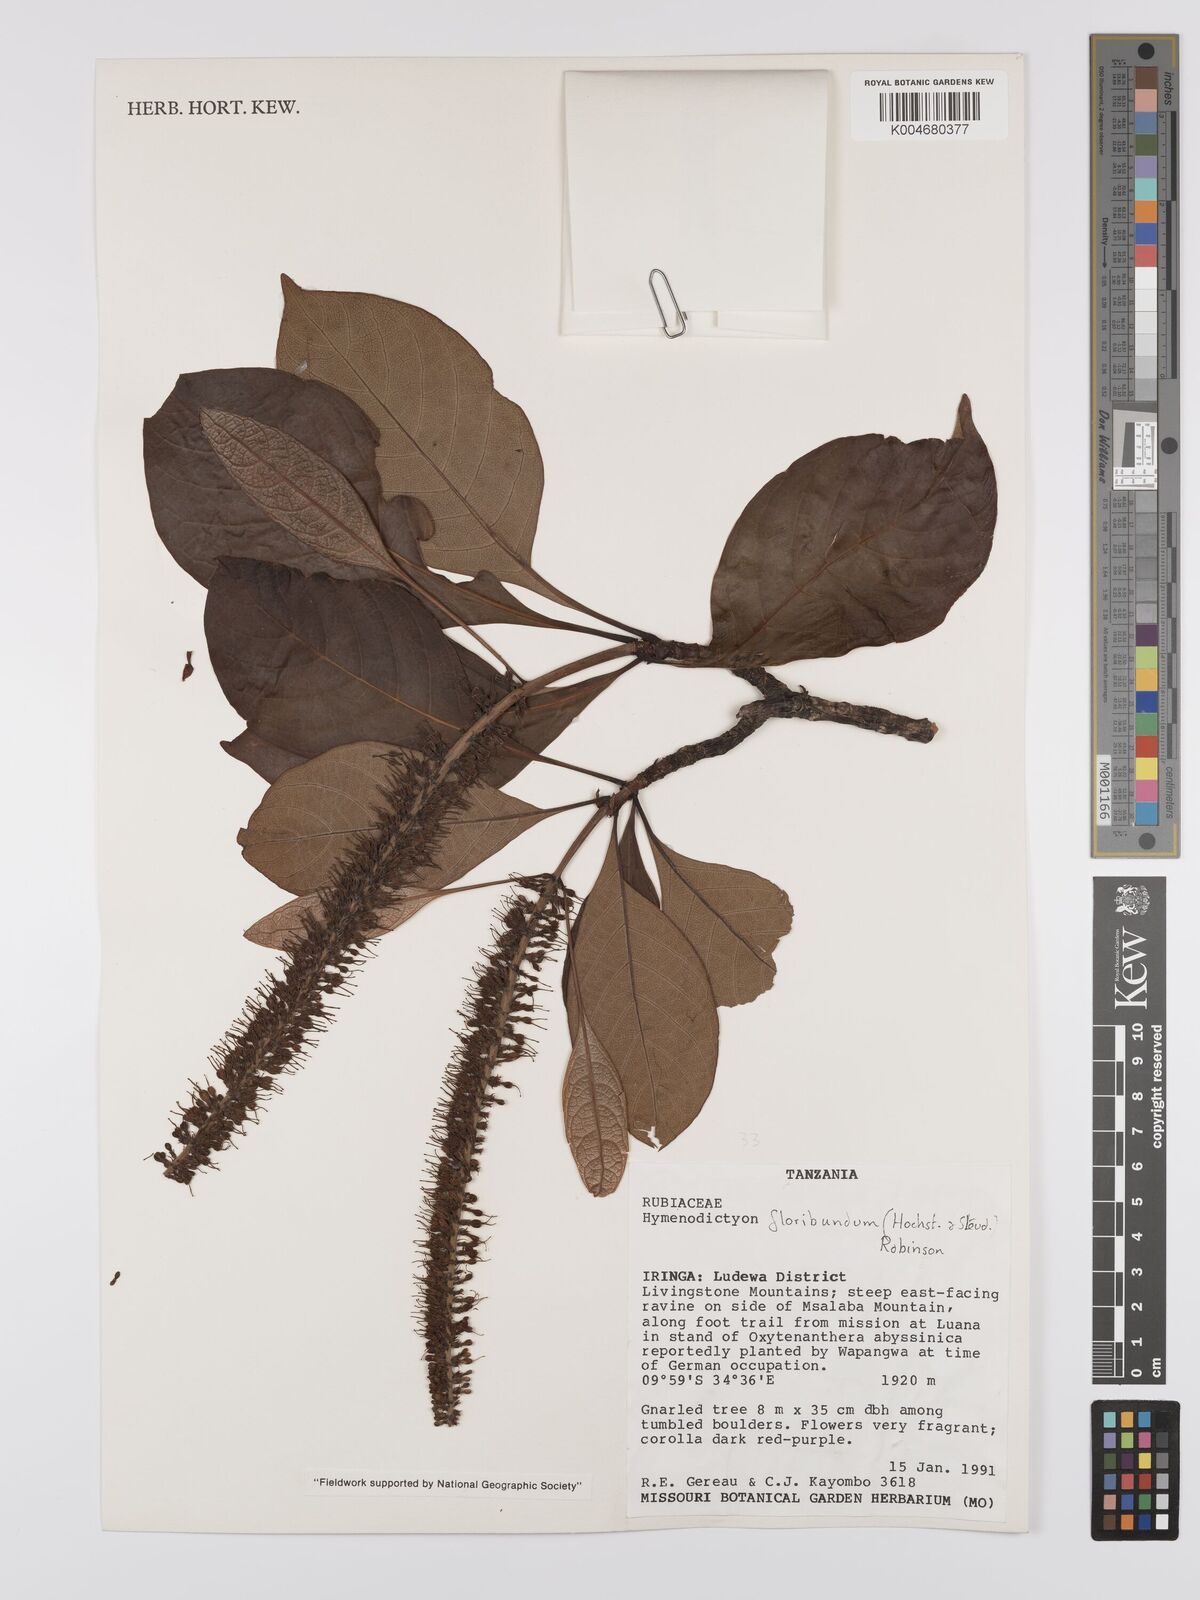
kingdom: Plantae
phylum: Tracheophyta
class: Magnoliopsida
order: Gentianales
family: Rubiaceae
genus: Hymenodictyon
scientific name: Hymenodictyon floribundum
